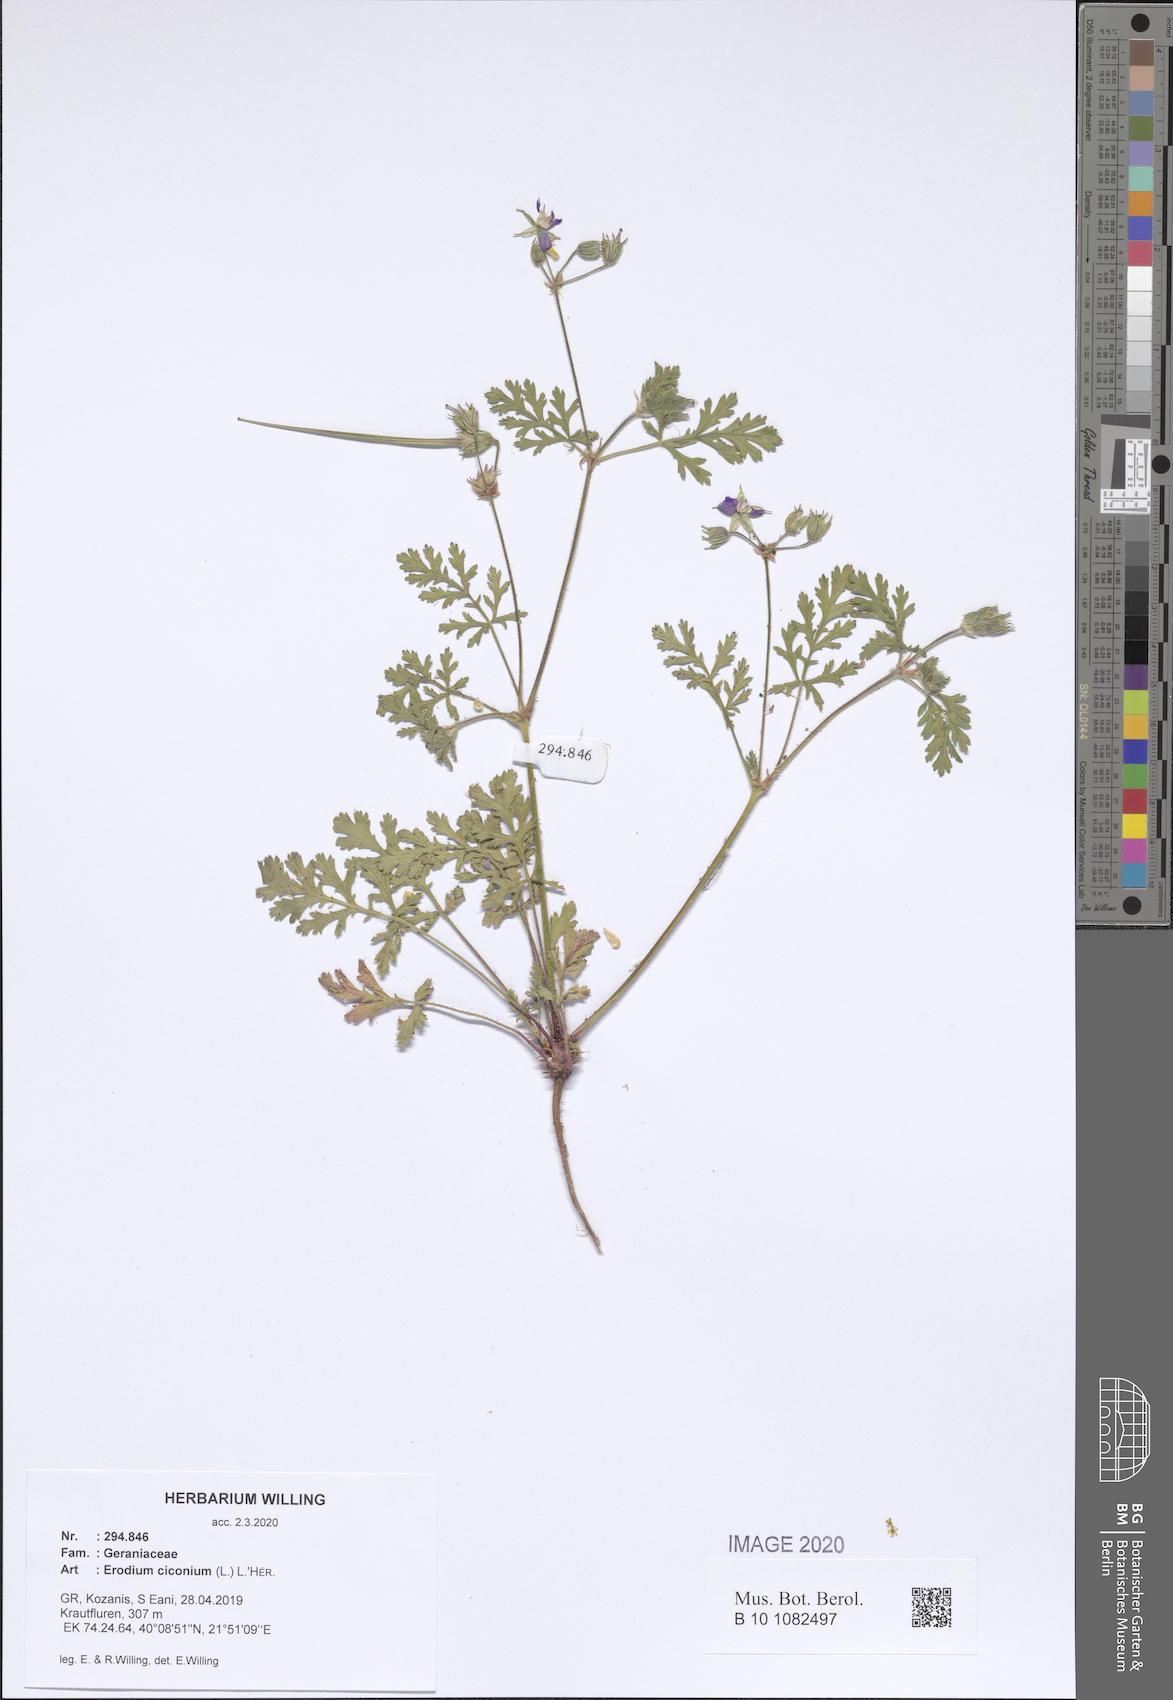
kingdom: Plantae
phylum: Tracheophyta
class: Magnoliopsida
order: Geraniales
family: Geraniaceae
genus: Erodium
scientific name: Erodium ciconium
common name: Common stork's bill
